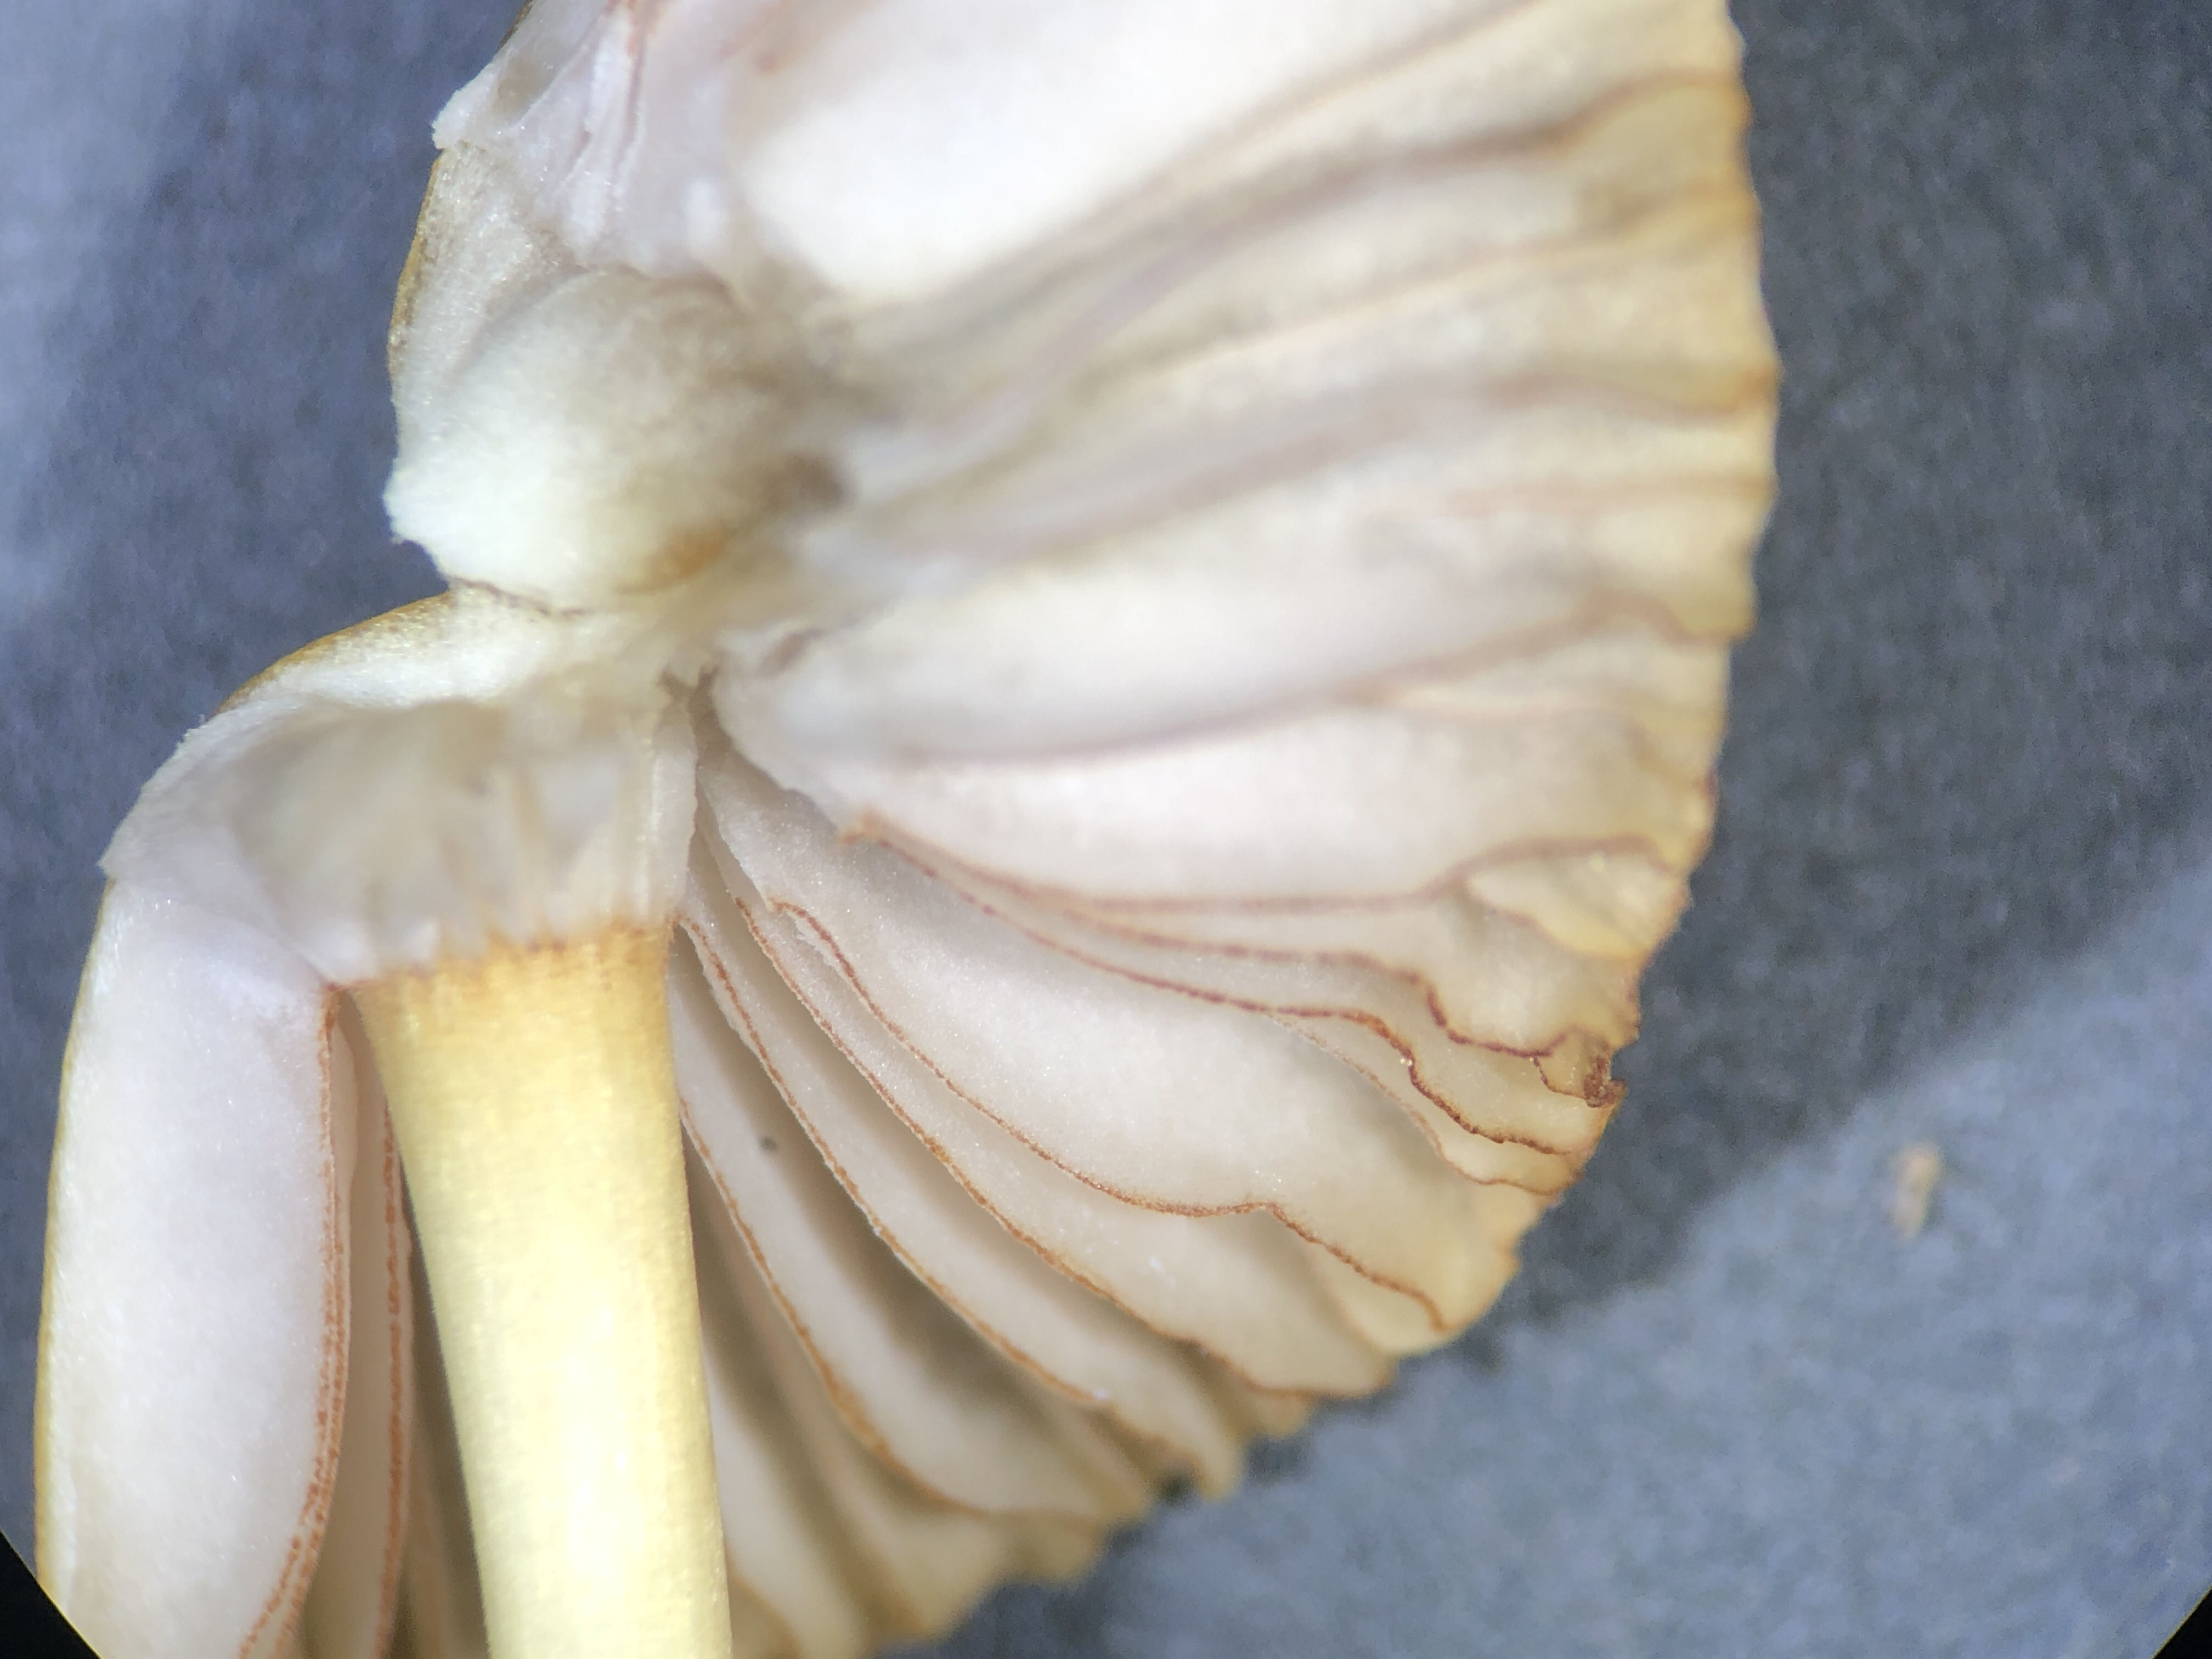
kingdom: Fungi
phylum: Basidiomycota
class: Agaricomycetes
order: Agaricales
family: Mycenaceae
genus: Mycena
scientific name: Mycena olivaceomarginata
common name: brunægget huesvamp
